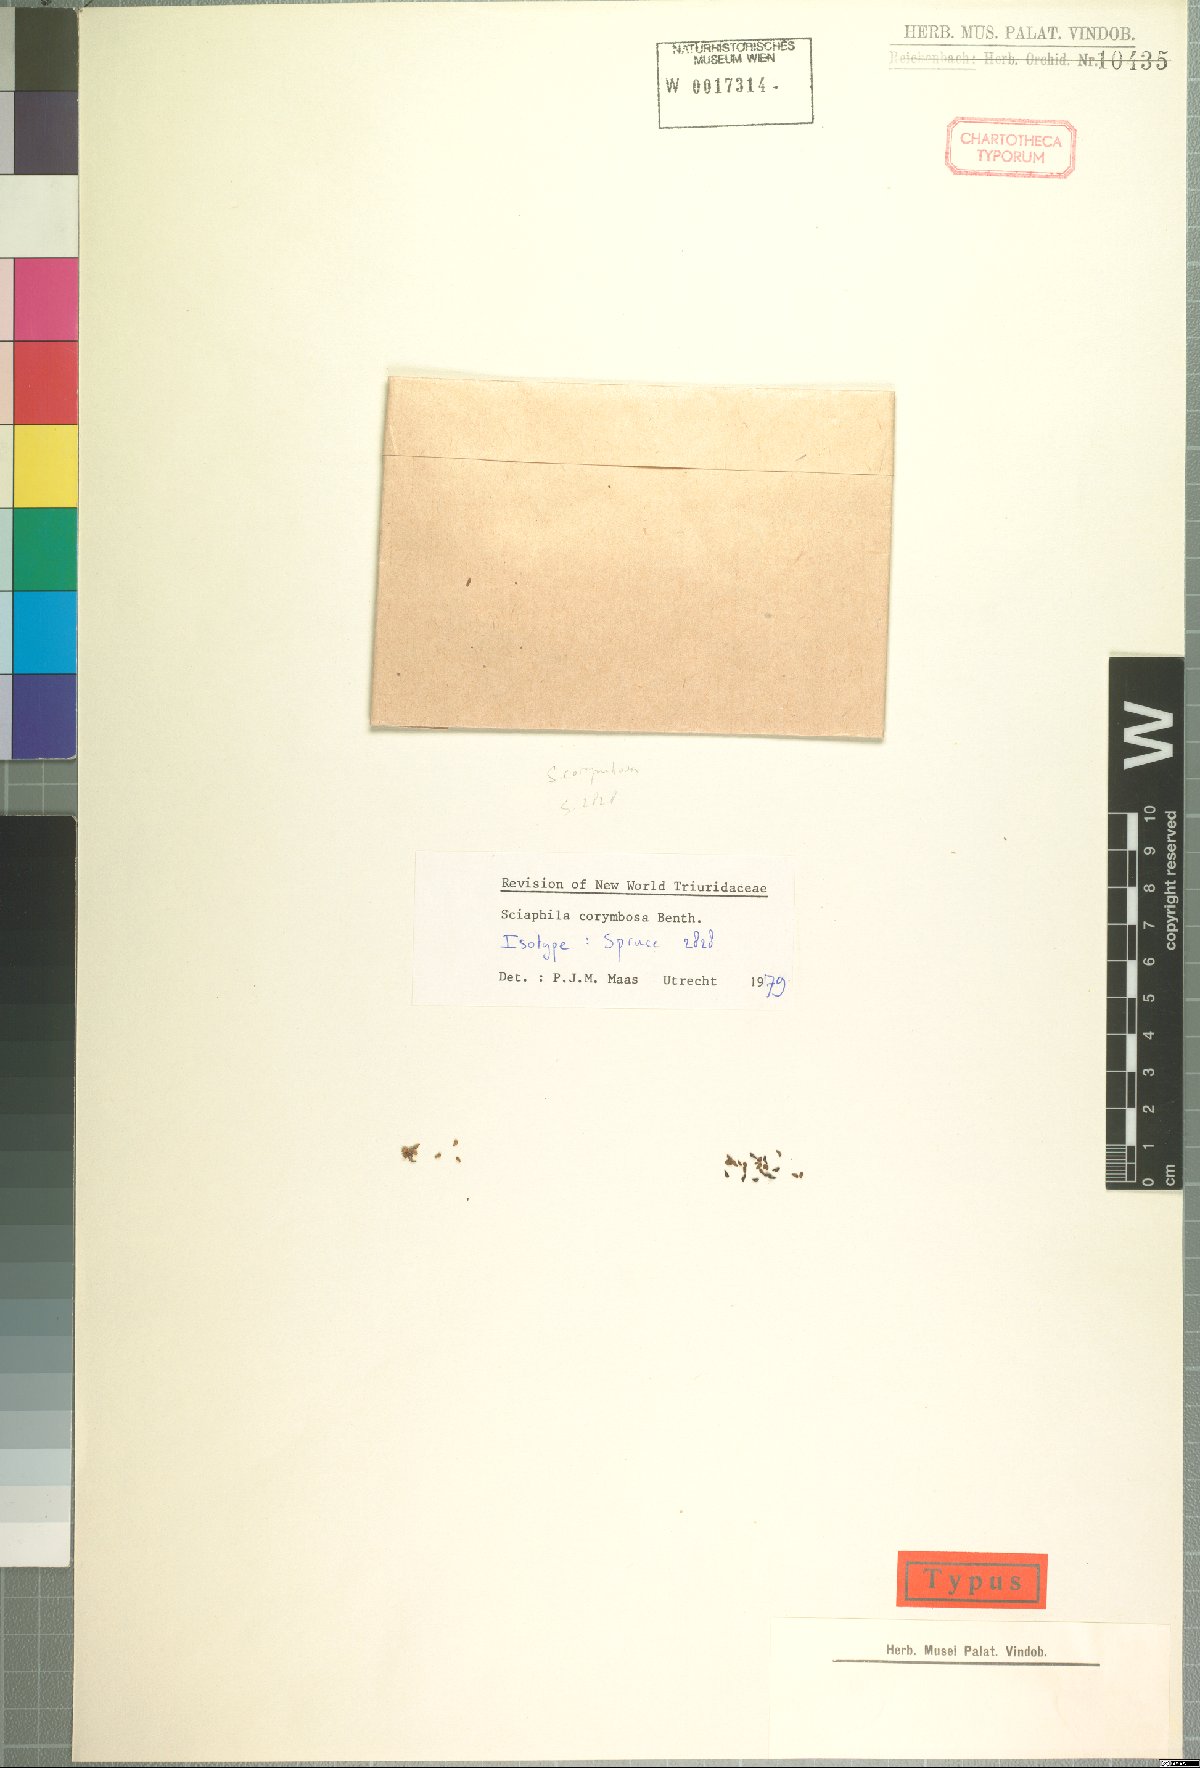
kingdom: Plantae
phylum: Tracheophyta
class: Liliopsida
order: Pandanales
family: Triuridaceae
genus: Sciaphila
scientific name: Sciaphila corymbosa
